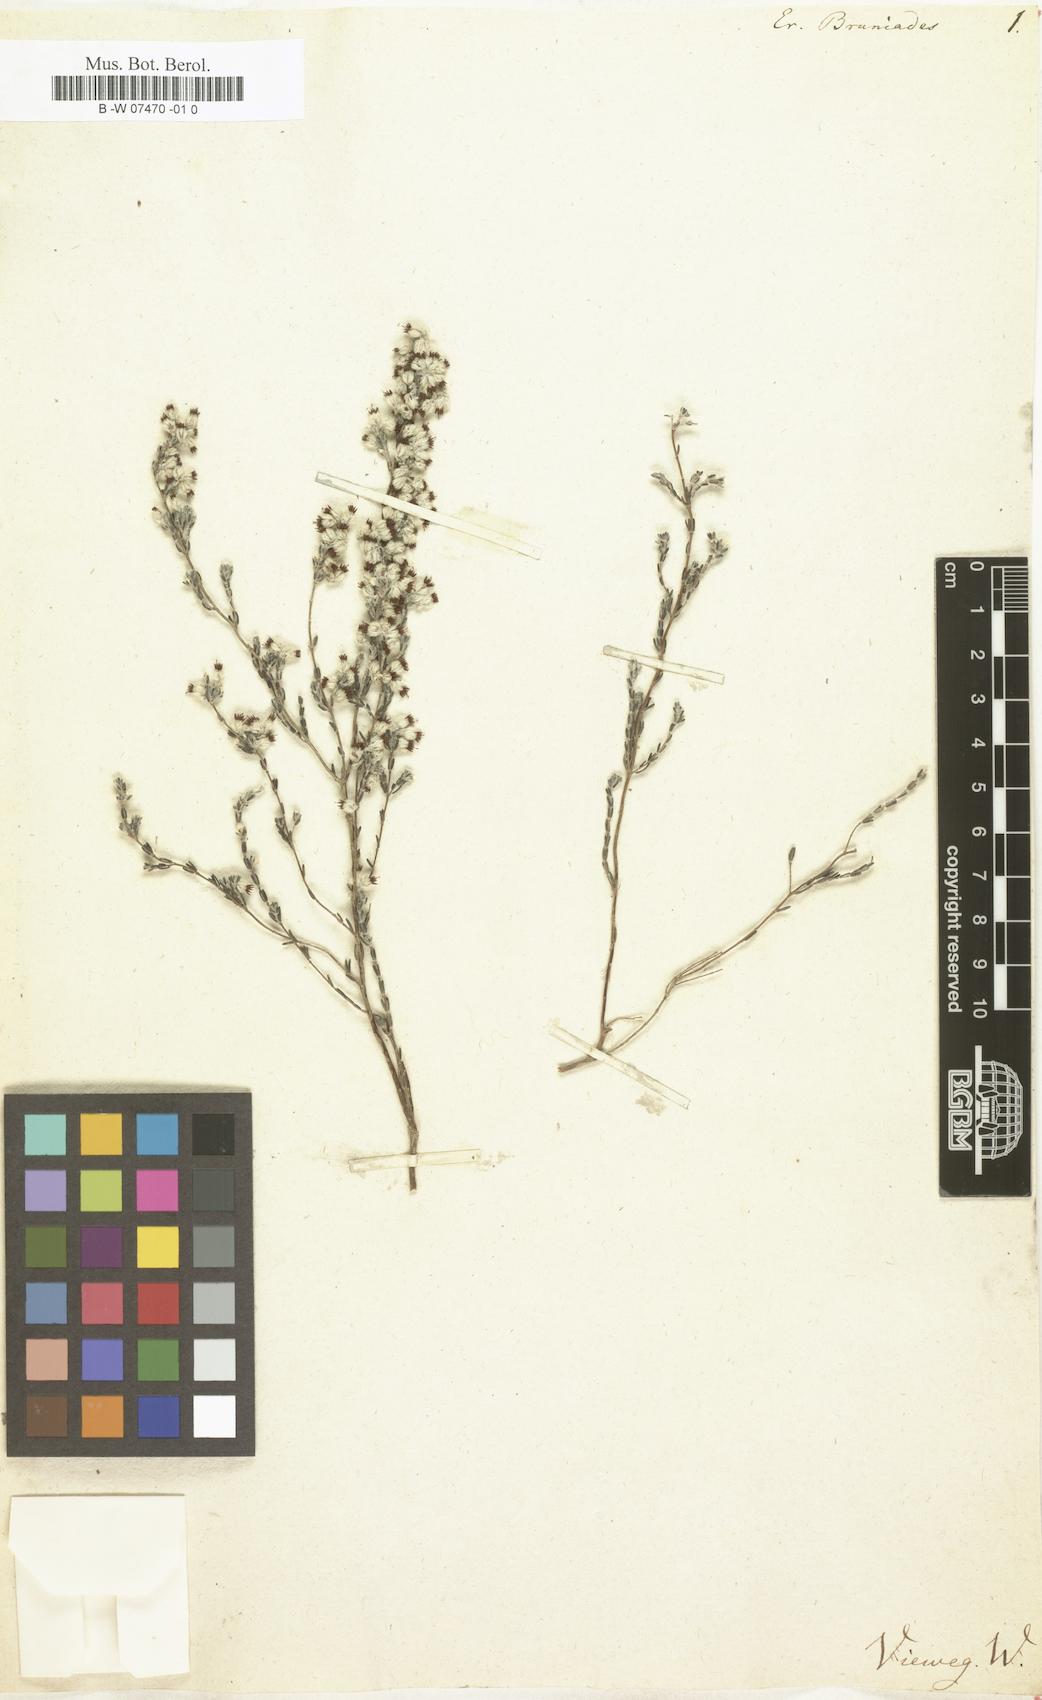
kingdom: Plantae
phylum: Tracheophyta
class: Magnoliopsida
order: Ericales
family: Ericaceae
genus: Erica
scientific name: Erica bruniades
